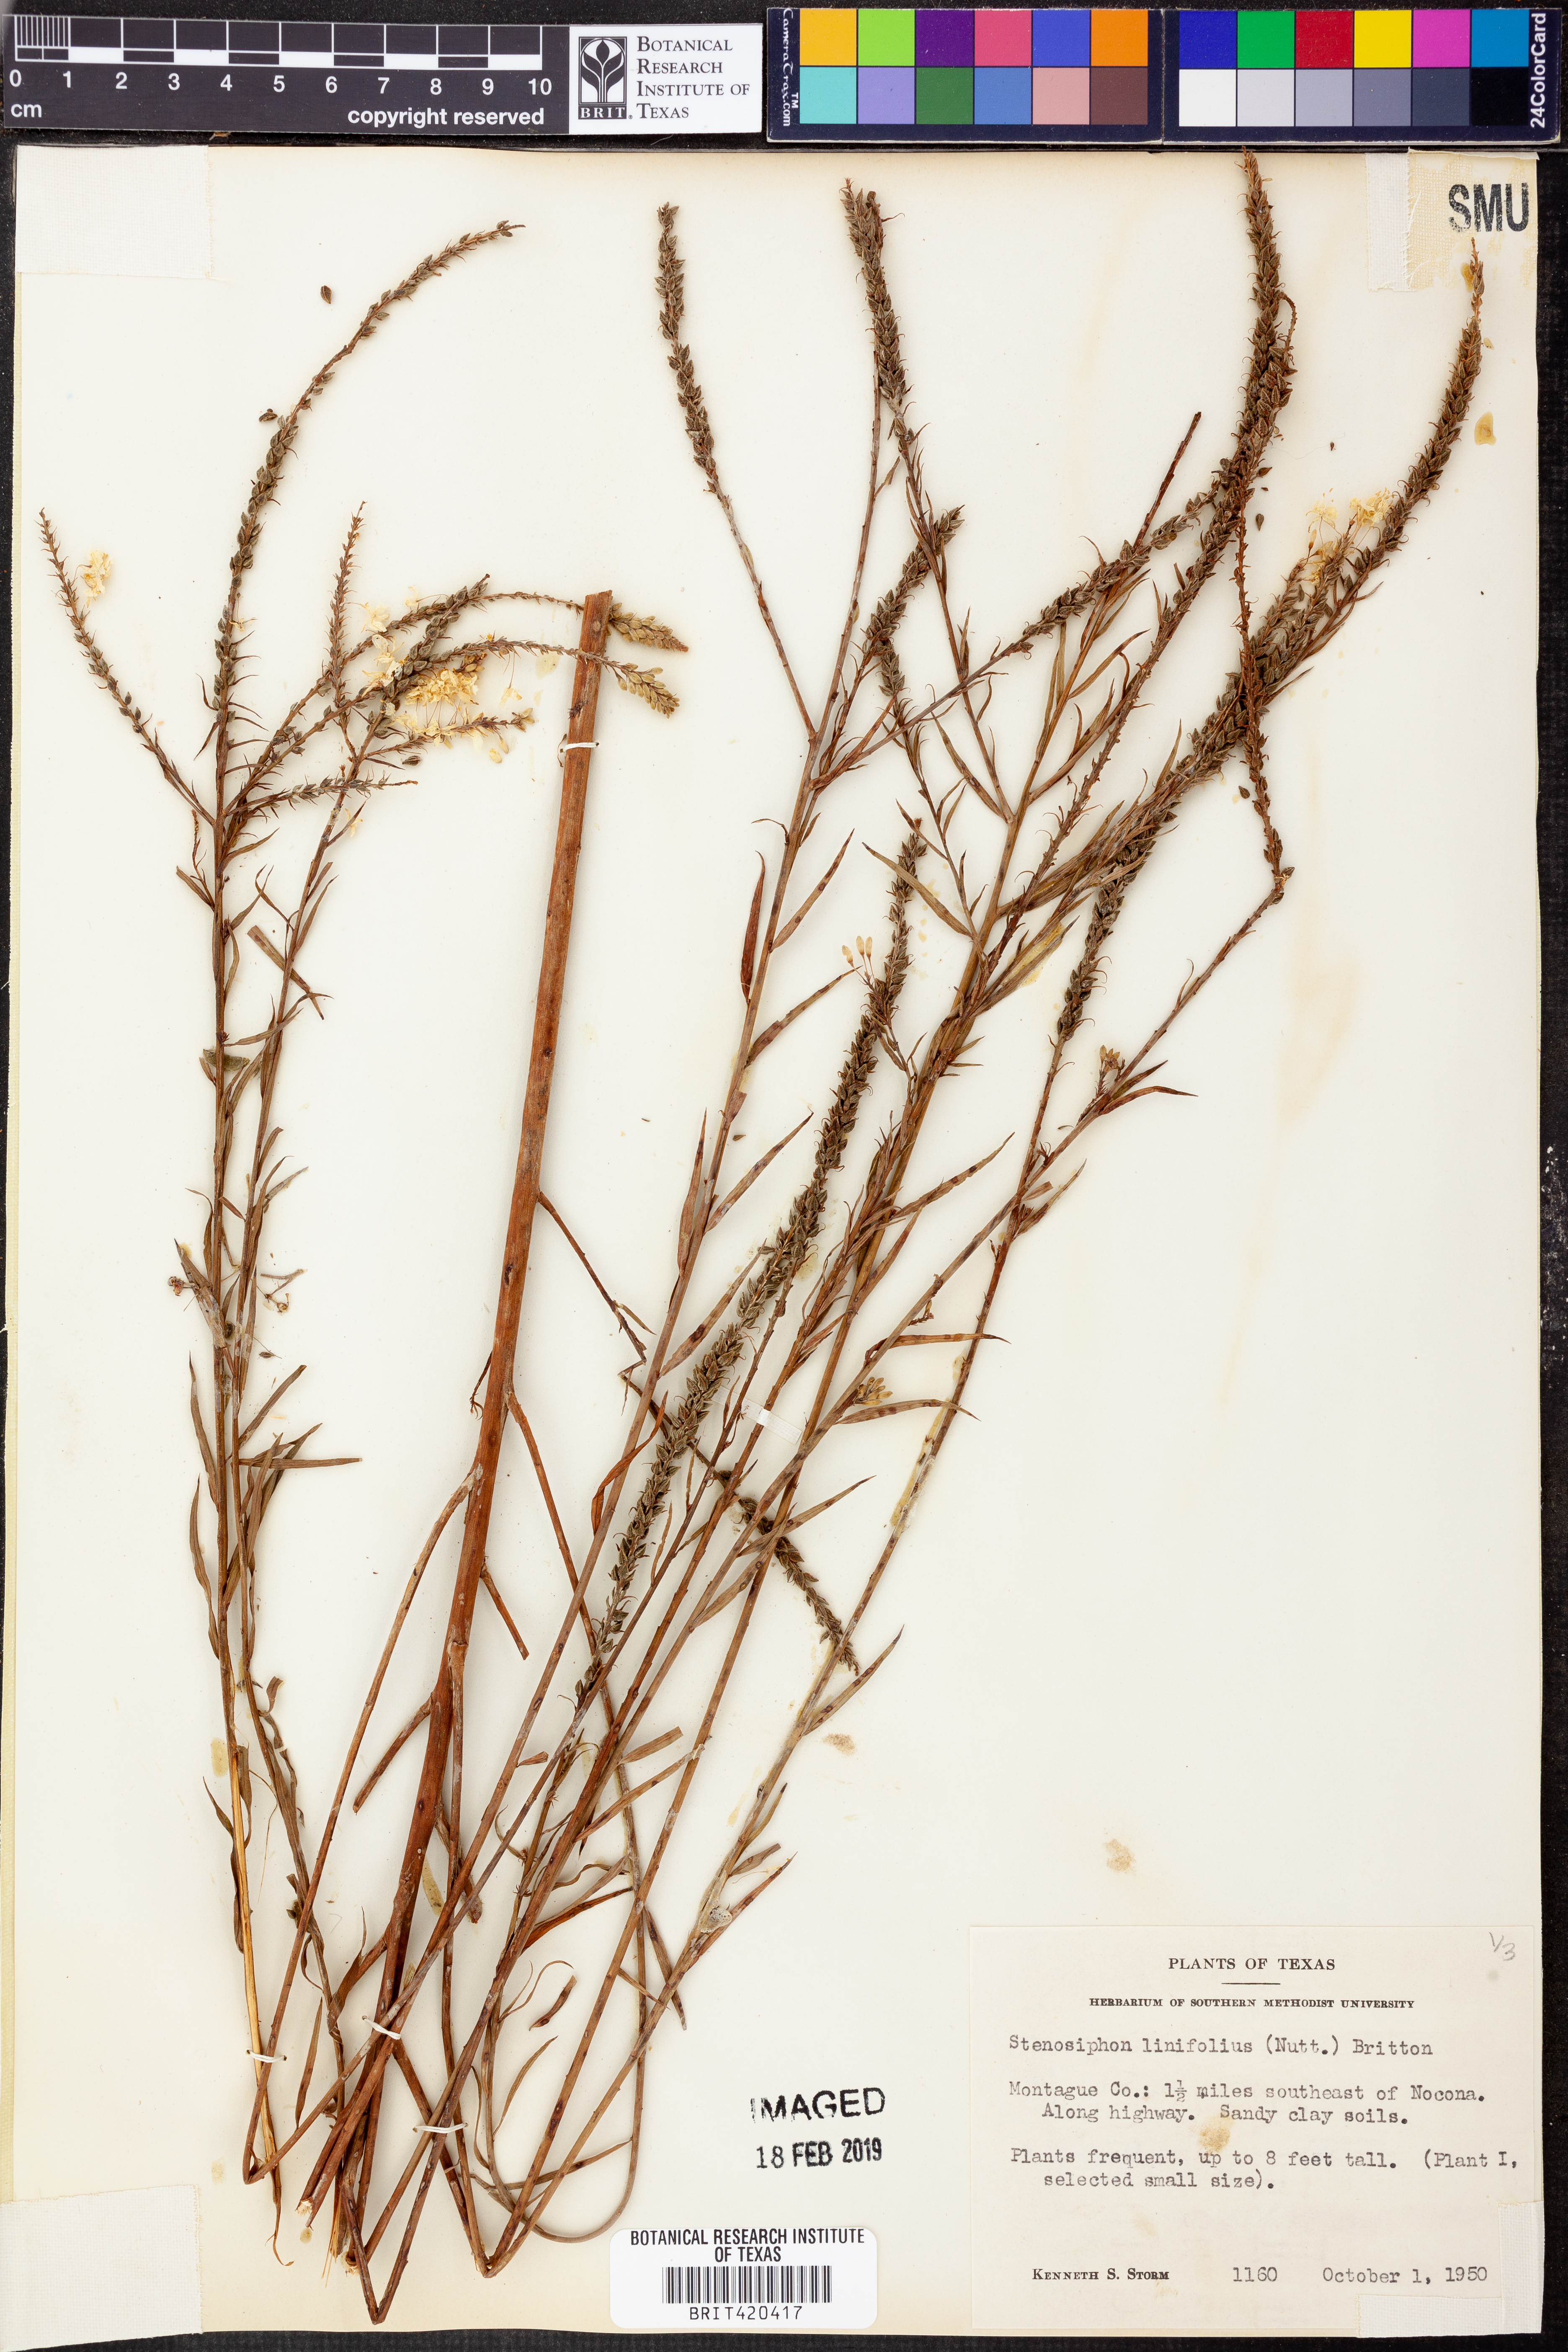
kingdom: Plantae
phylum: Tracheophyta
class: Magnoliopsida
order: Myrtales
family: Onagraceae
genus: Oenothera
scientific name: Oenothera glaucifolia
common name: False gaura
